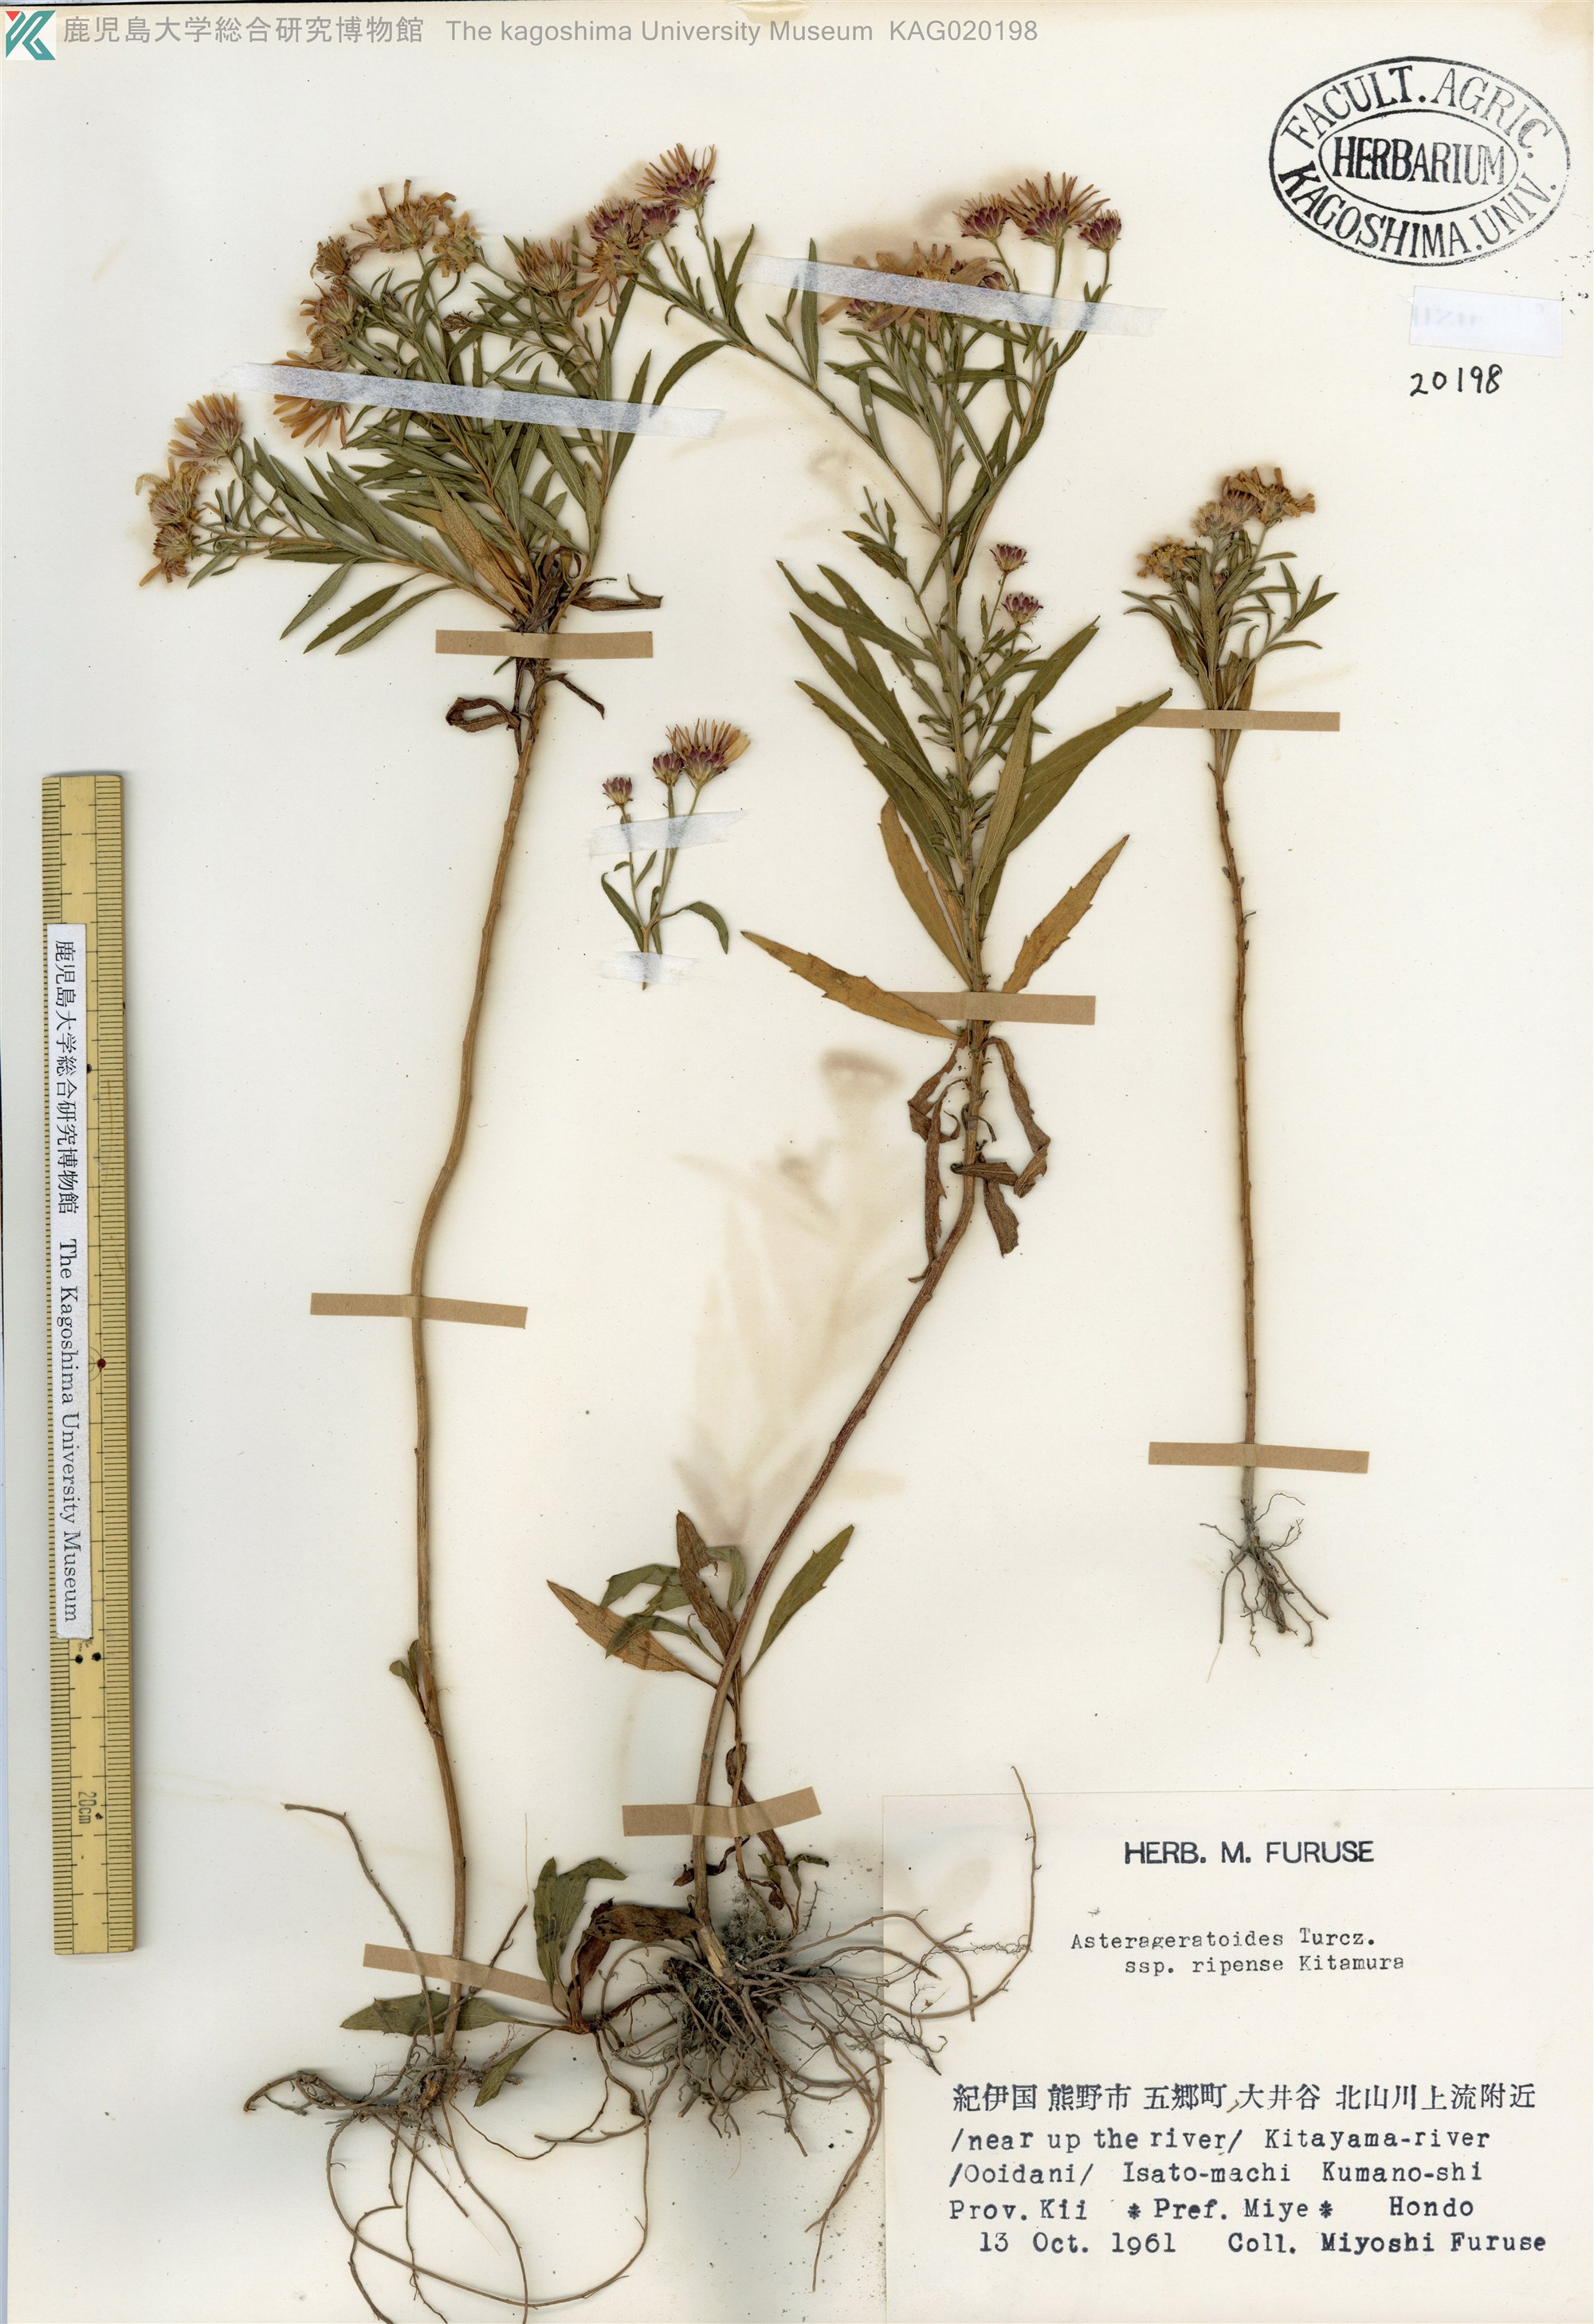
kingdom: Plantae
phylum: Tracheophyta
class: Magnoliopsida
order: Asterales
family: Asteraceae
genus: Aster
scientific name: Aster microcephalus
